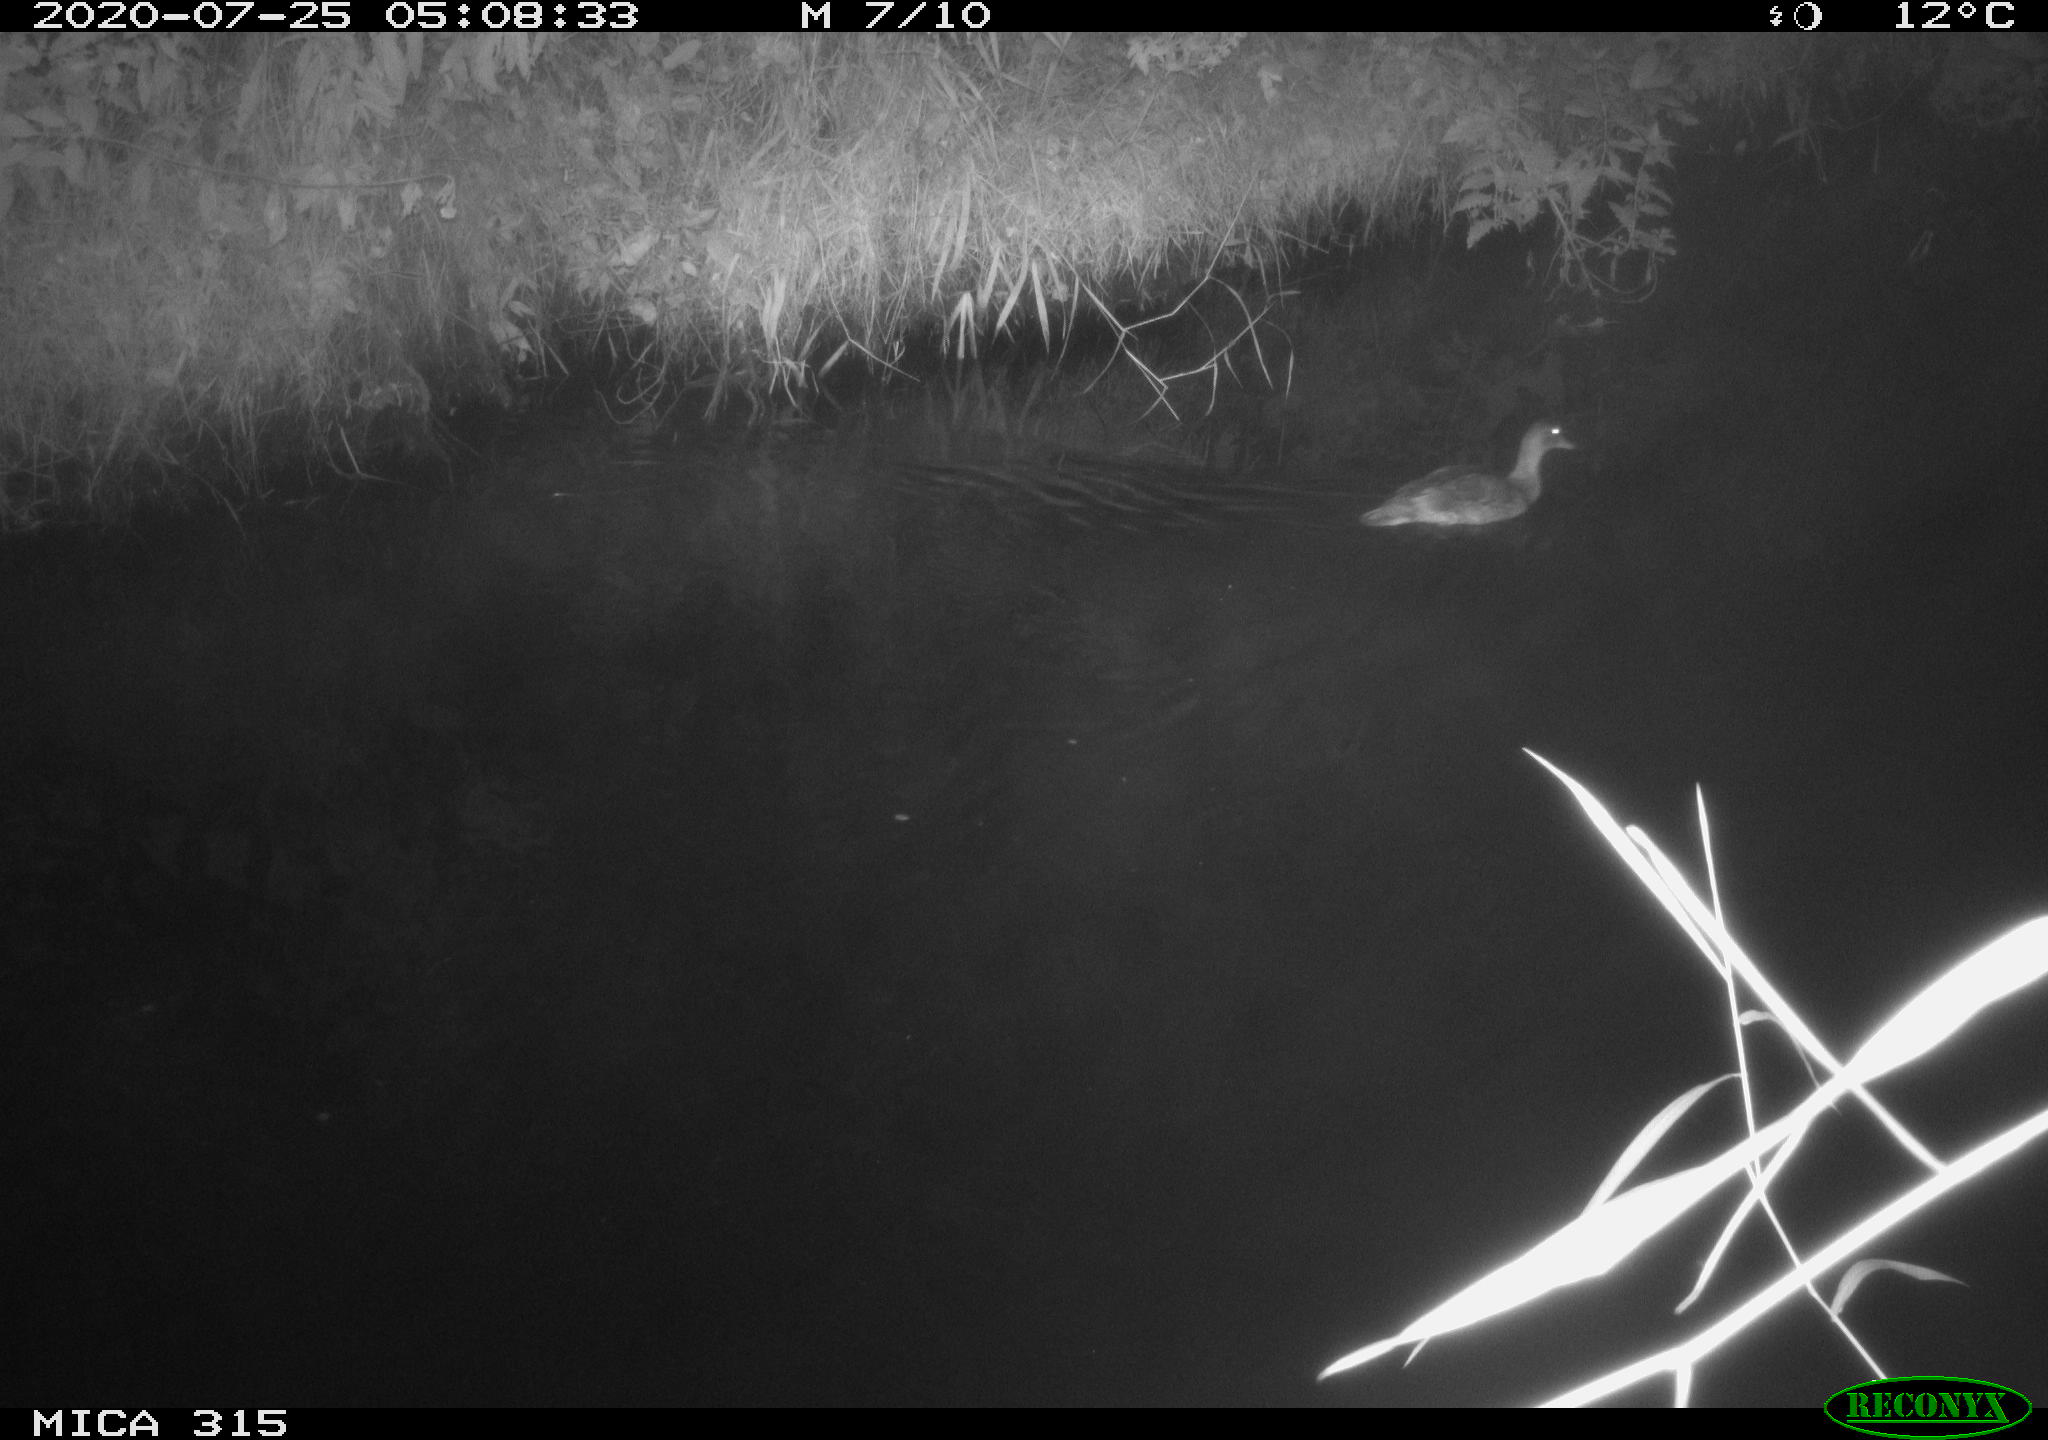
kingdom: Animalia
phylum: Chordata
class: Aves
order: Anseriformes
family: Anatidae
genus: Anas
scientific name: Anas platyrhynchos
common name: Mallard
